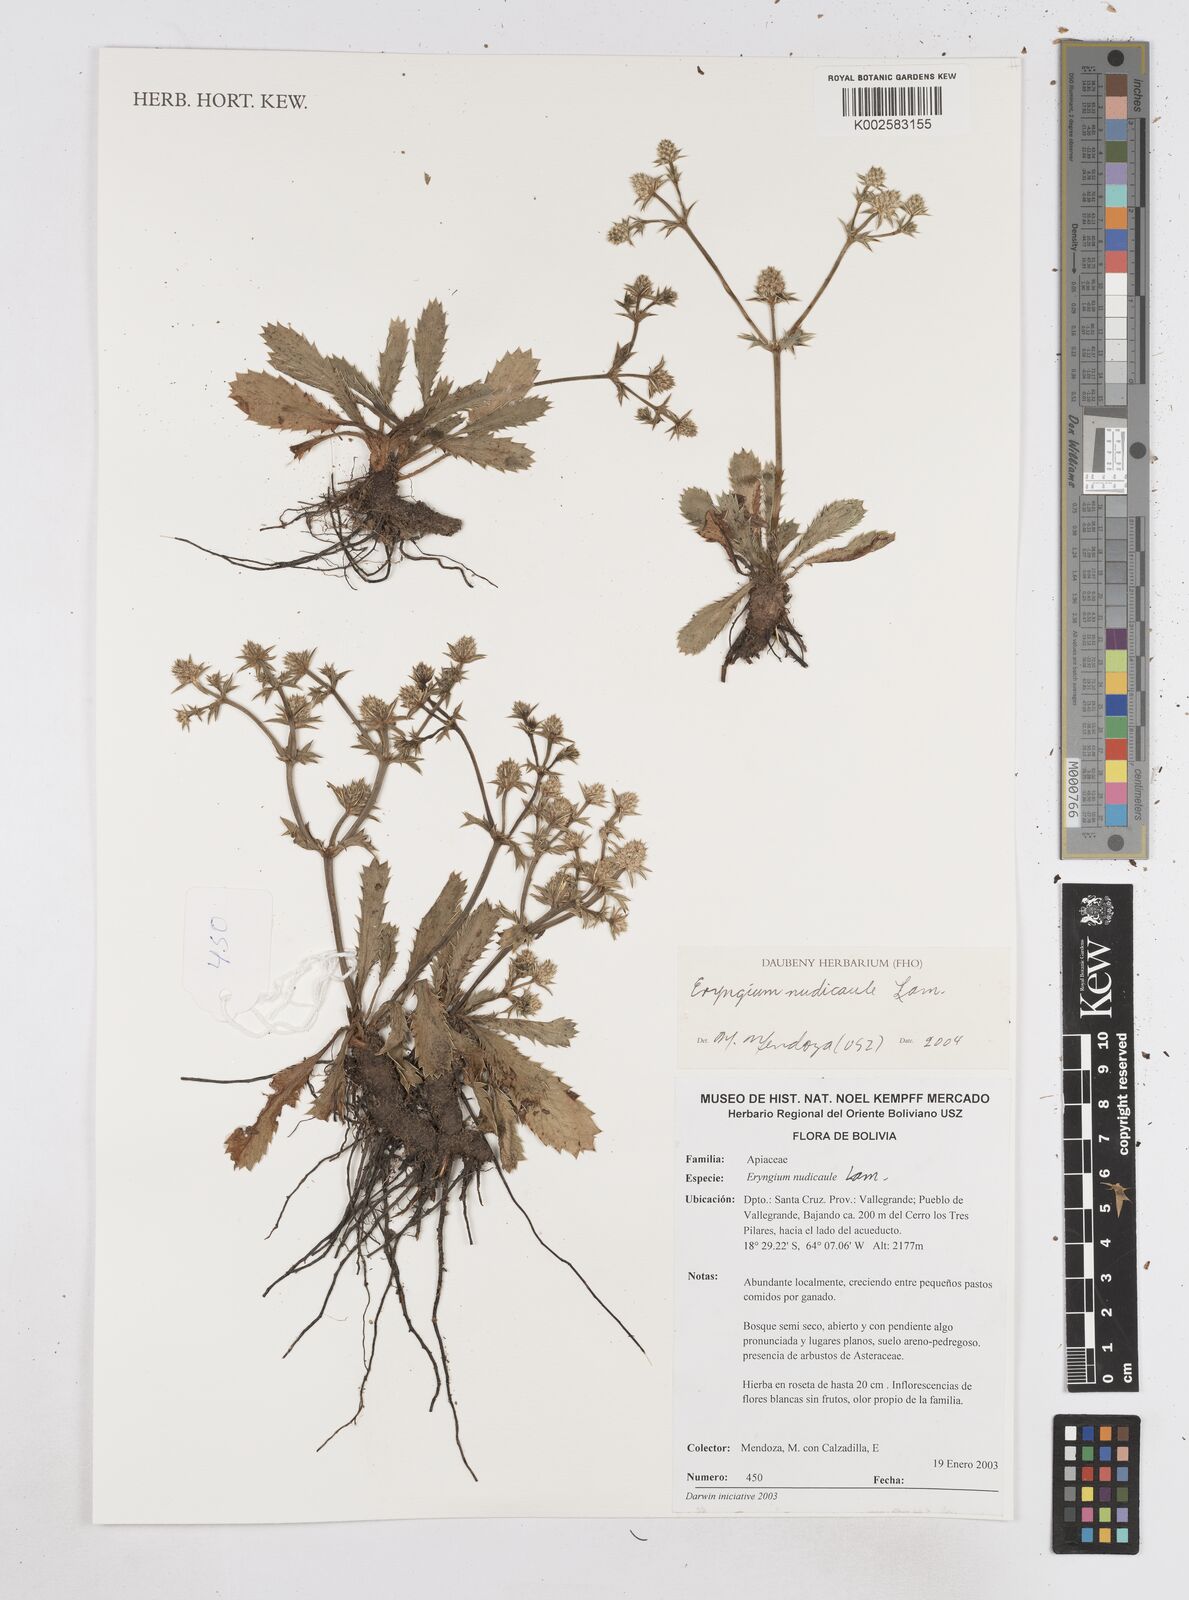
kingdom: Plantae
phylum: Tracheophyta
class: Magnoliopsida
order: Apiales
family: Apiaceae
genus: Eryngium
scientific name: Eryngium nudicaule
